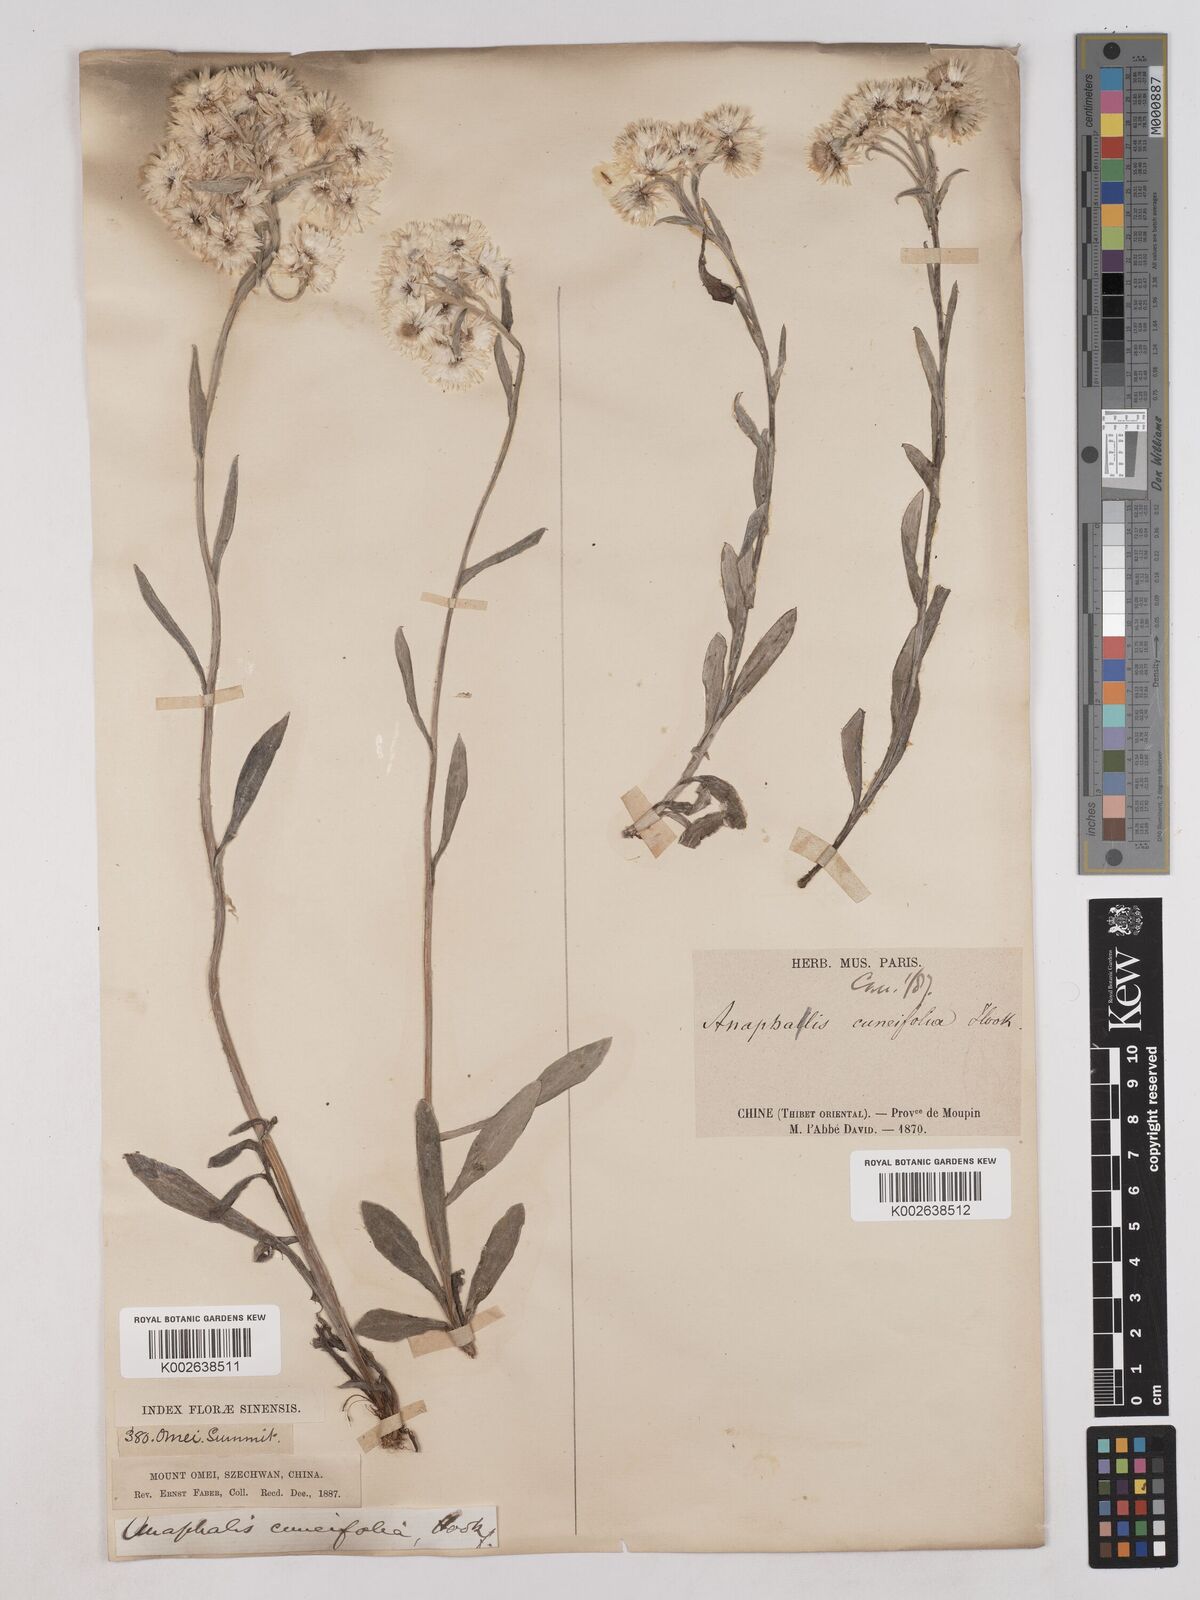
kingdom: Plantae
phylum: Tracheophyta
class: Magnoliopsida
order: Asterales
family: Asteraceae
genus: Anaphalis
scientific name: Anaphalis nepalensis
